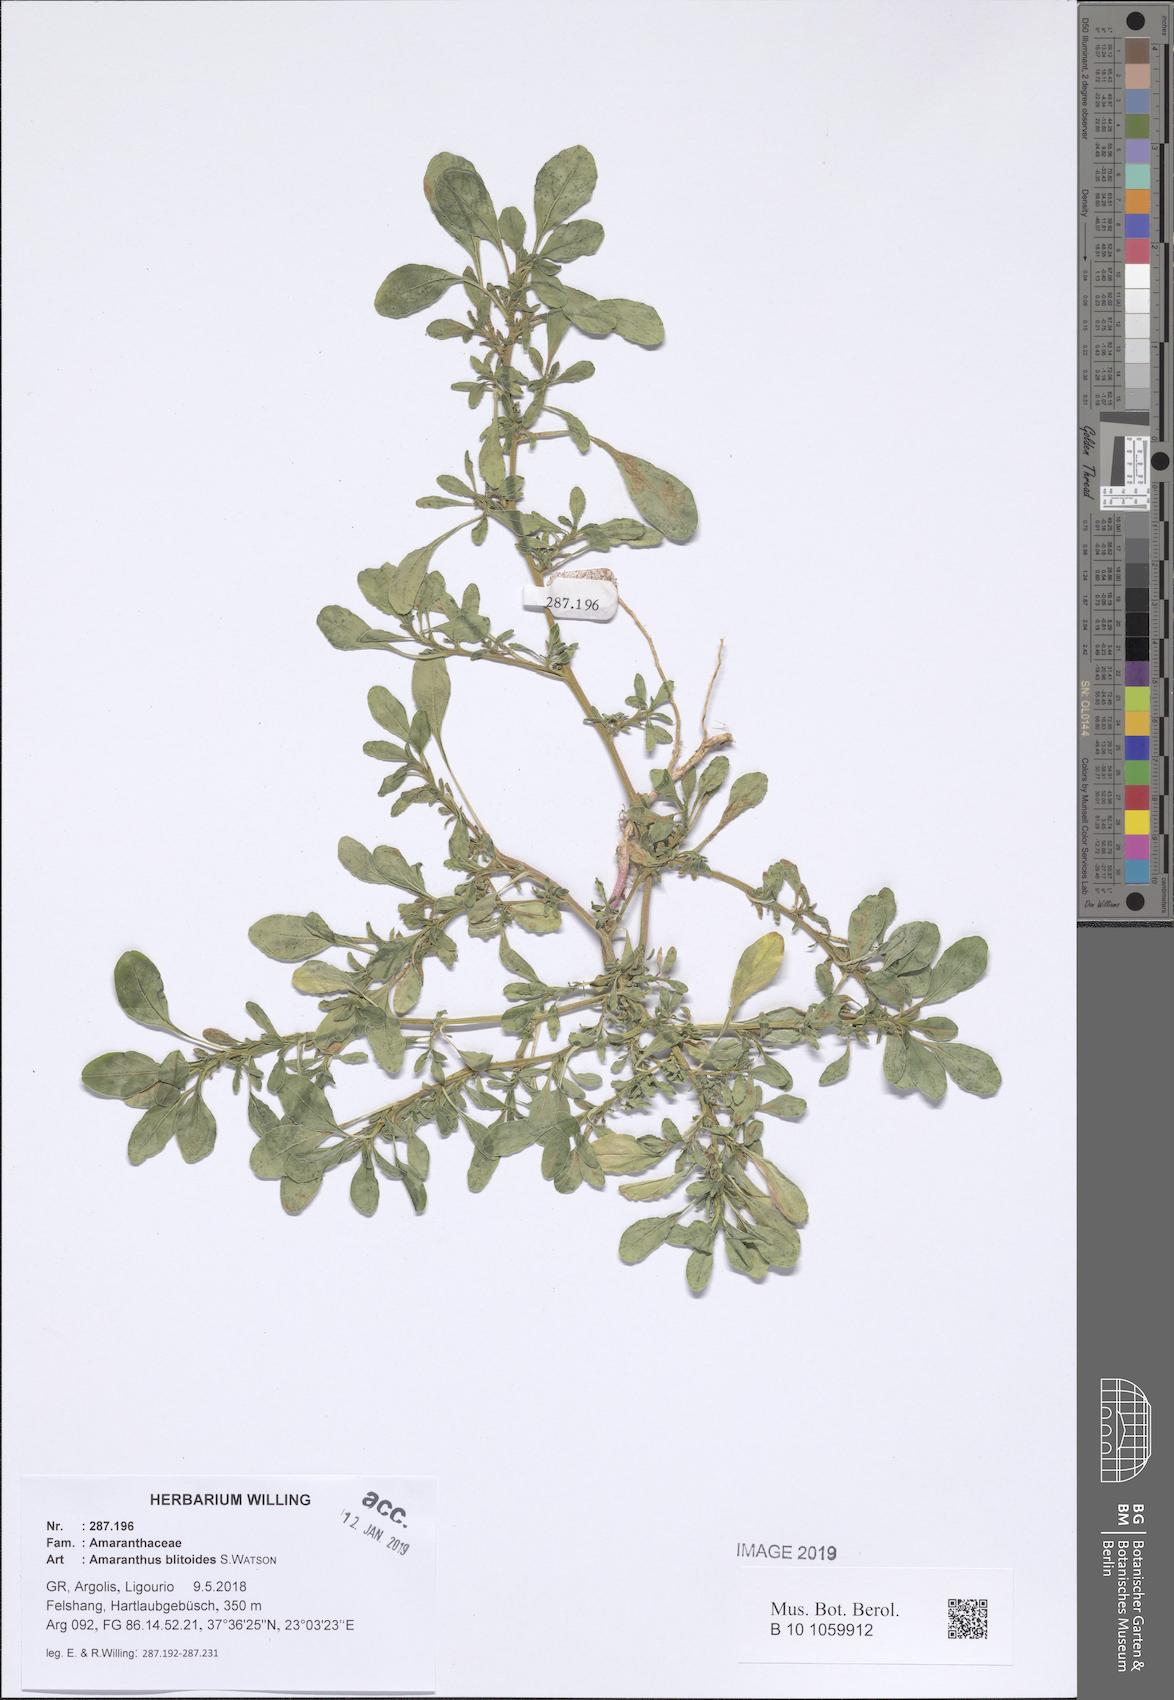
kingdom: Plantae
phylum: Tracheophyta
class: Magnoliopsida
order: Caryophyllales
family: Amaranthaceae
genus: Amaranthus
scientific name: Amaranthus blitoides
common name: Prostrate pigweed
